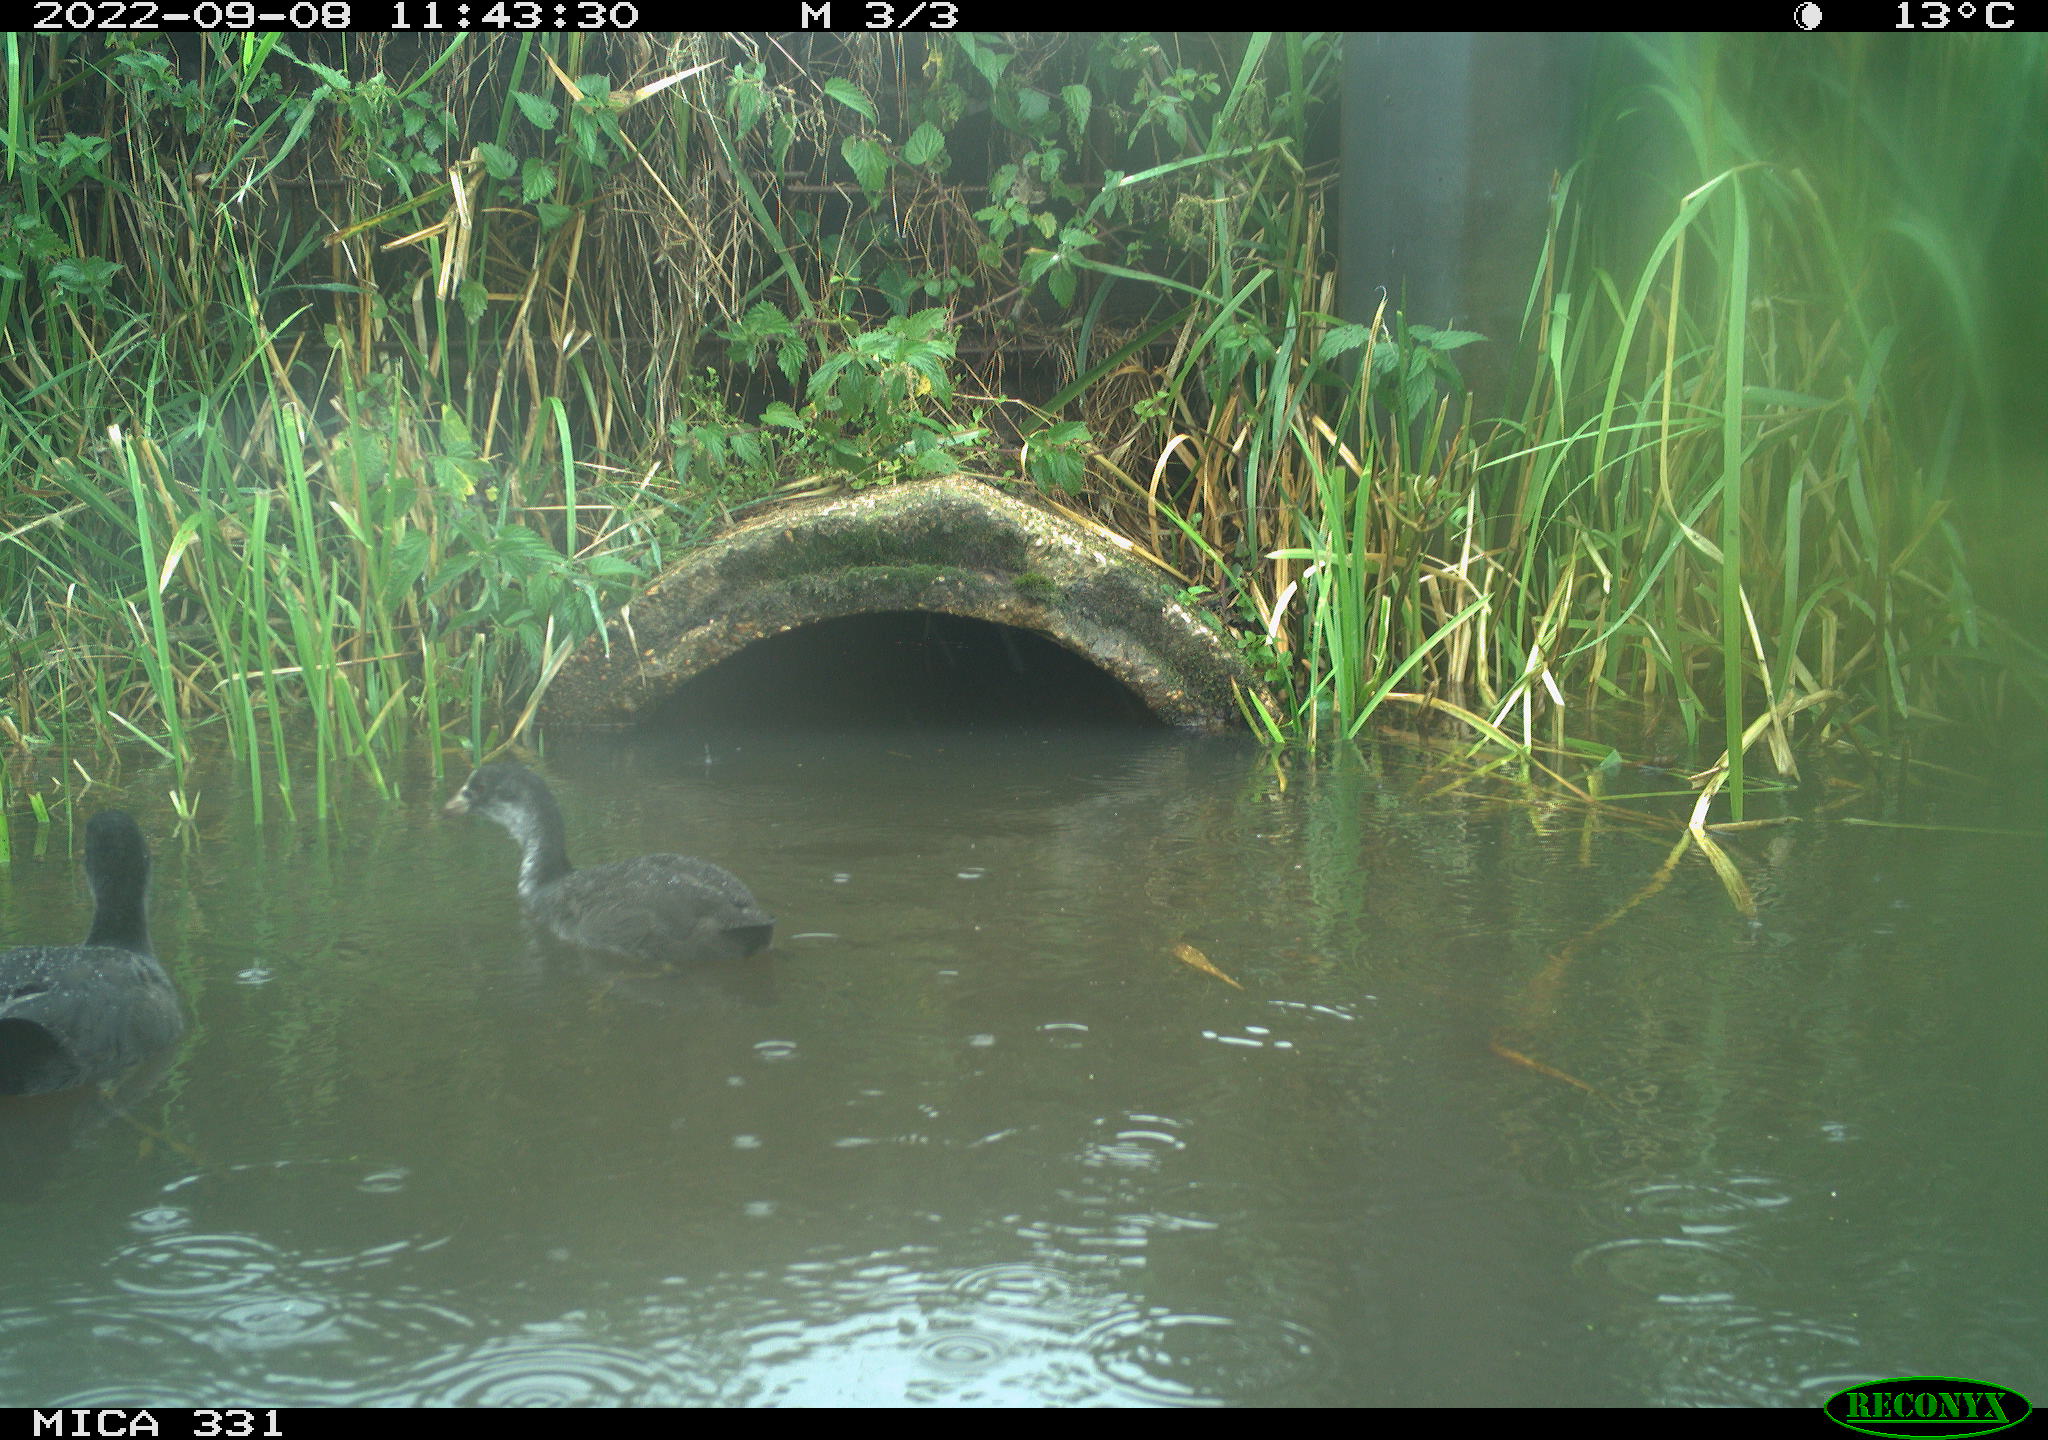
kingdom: Animalia
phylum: Chordata
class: Aves
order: Gruiformes
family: Rallidae
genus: Fulica
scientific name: Fulica atra
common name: Eurasian coot
